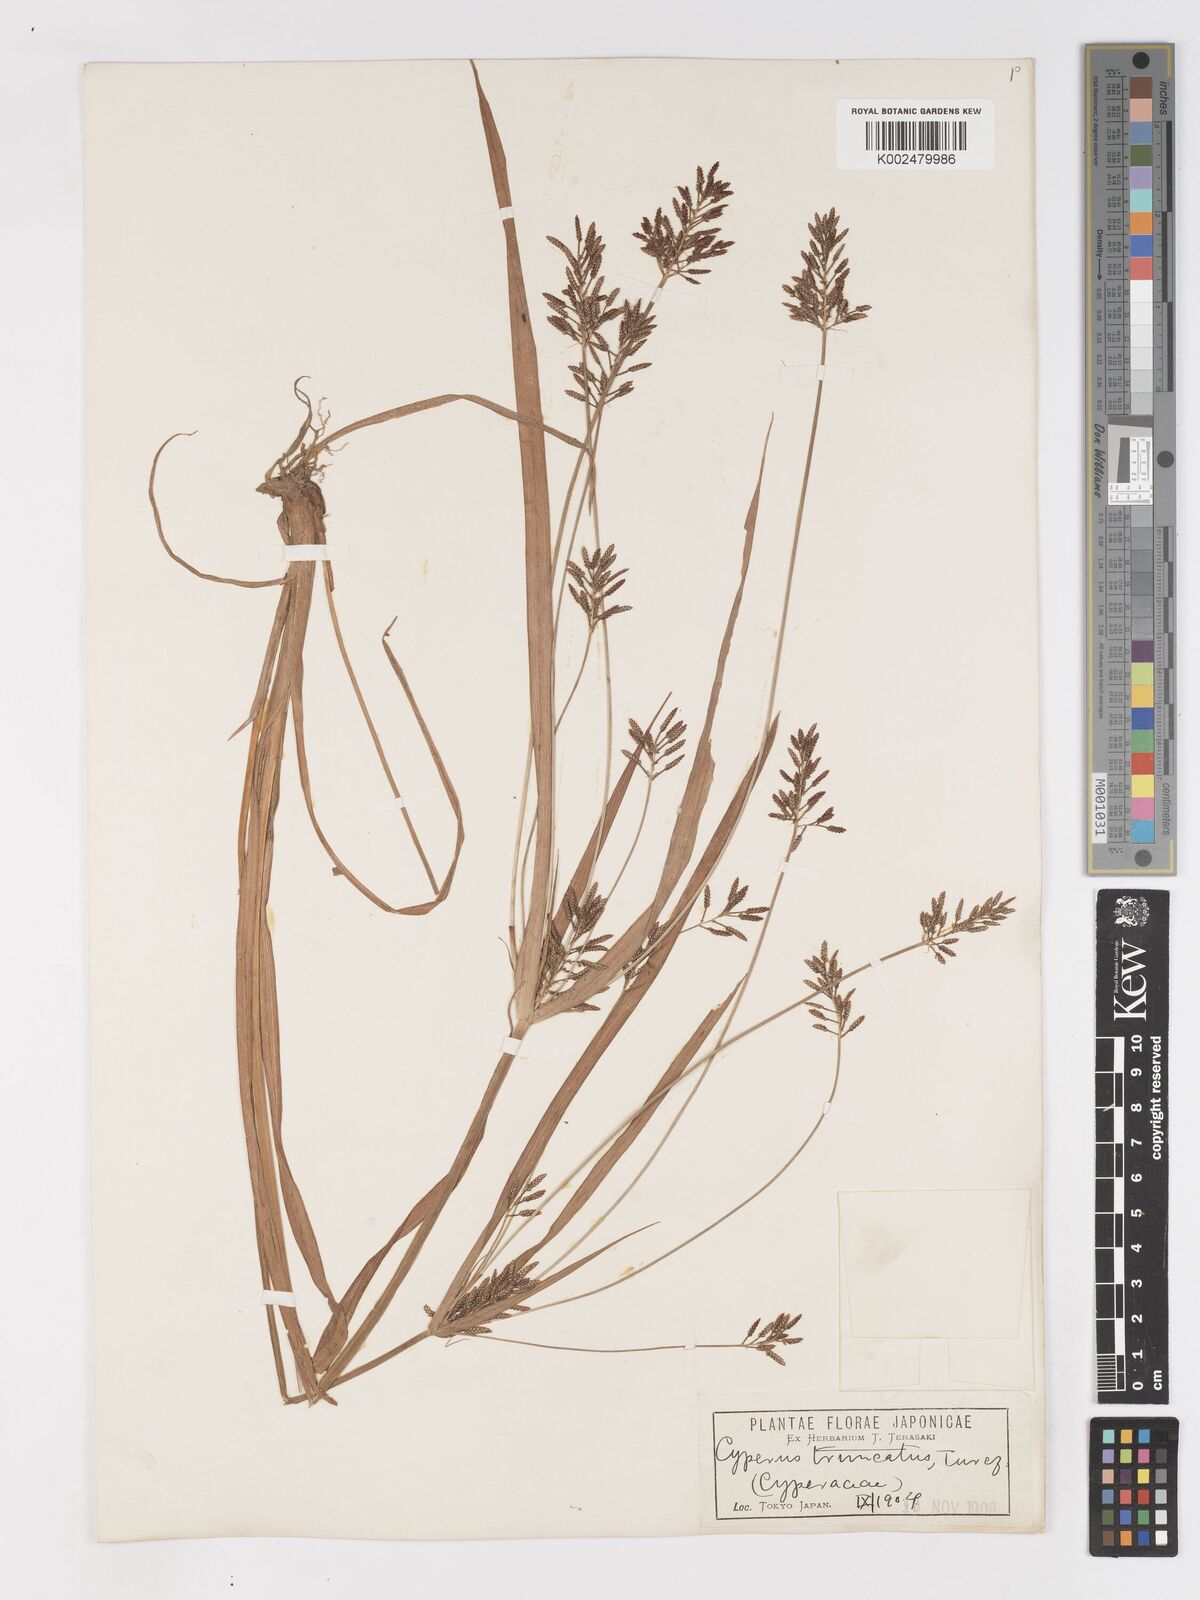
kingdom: Plantae
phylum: Tracheophyta
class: Liliopsida
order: Poales
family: Cyperaceae
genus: Cyperus
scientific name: Cyperus orthostachyus
